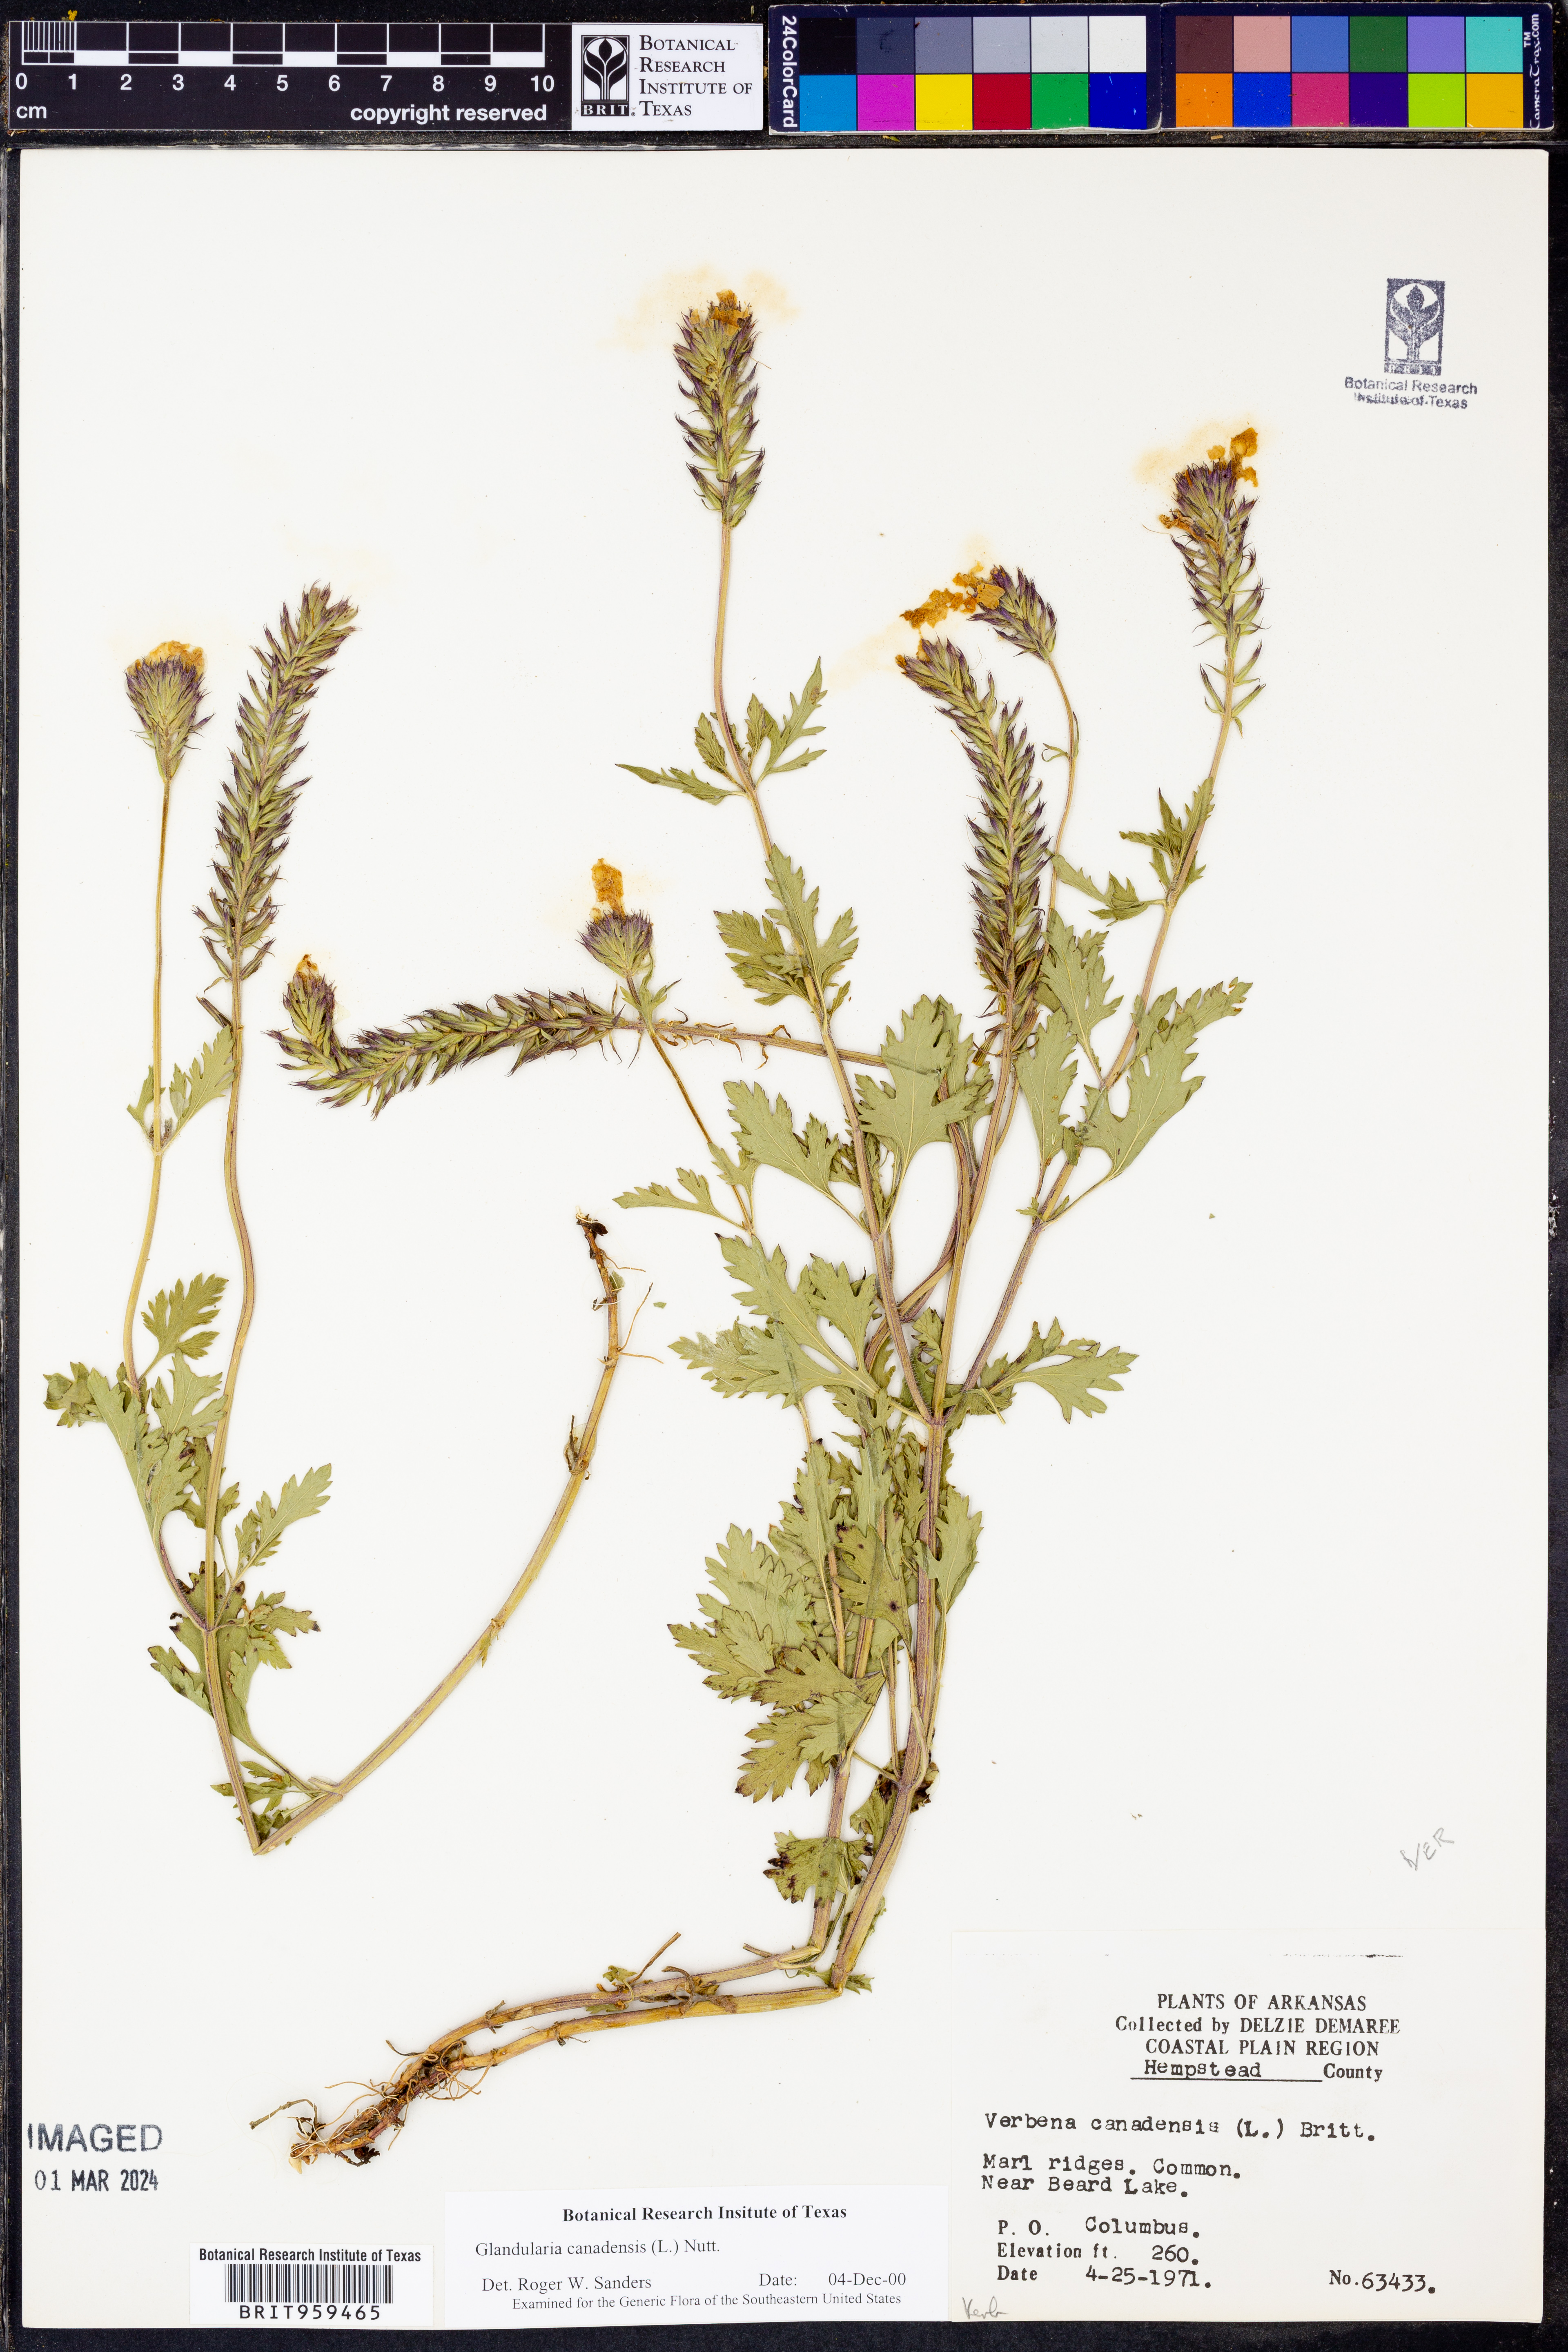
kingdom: Plantae
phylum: Tracheophyta
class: Magnoliopsida
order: Lamiales
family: Verbenaceae
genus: Verbena
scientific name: Verbena canadensis
